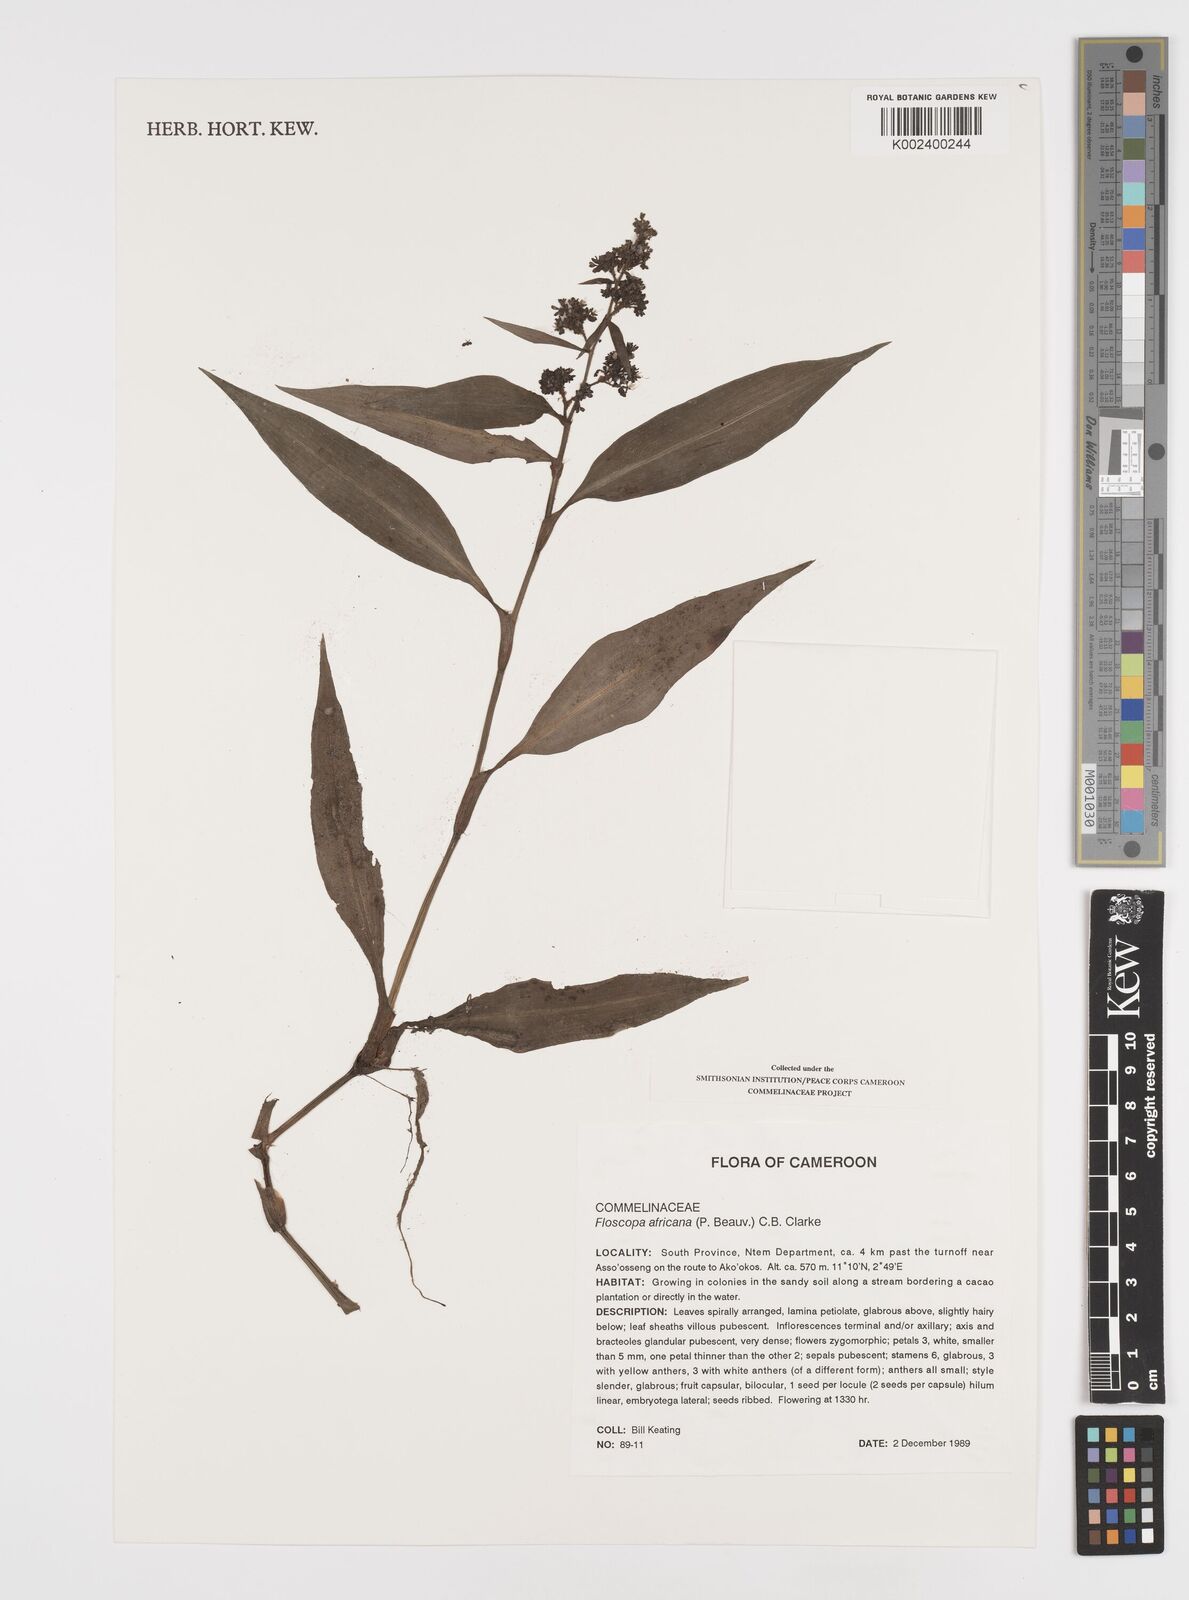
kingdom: Plantae
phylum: Tracheophyta
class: Liliopsida
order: Commelinales
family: Commelinaceae
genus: Floscopa
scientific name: Floscopa africana
